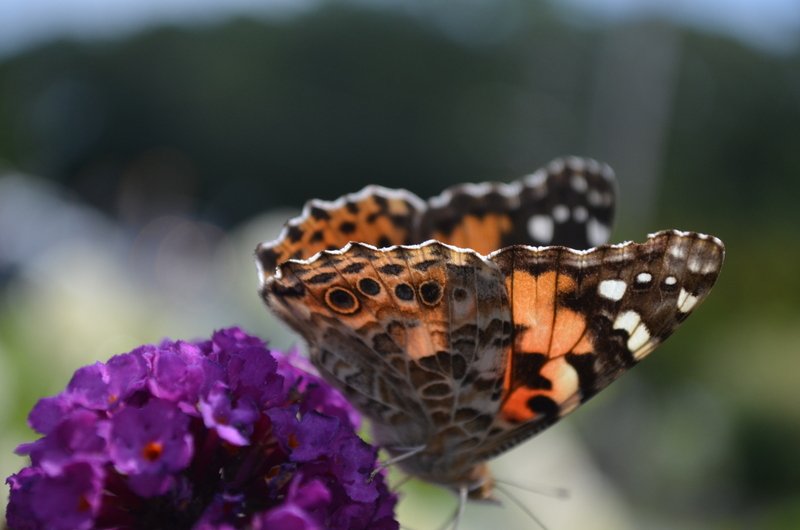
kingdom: Animalia
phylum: Arthropoda
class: Insecta
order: Lepidoptera
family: Nymphalidae
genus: Vanessa
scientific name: Vanessa cardui
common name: Painted Lady
